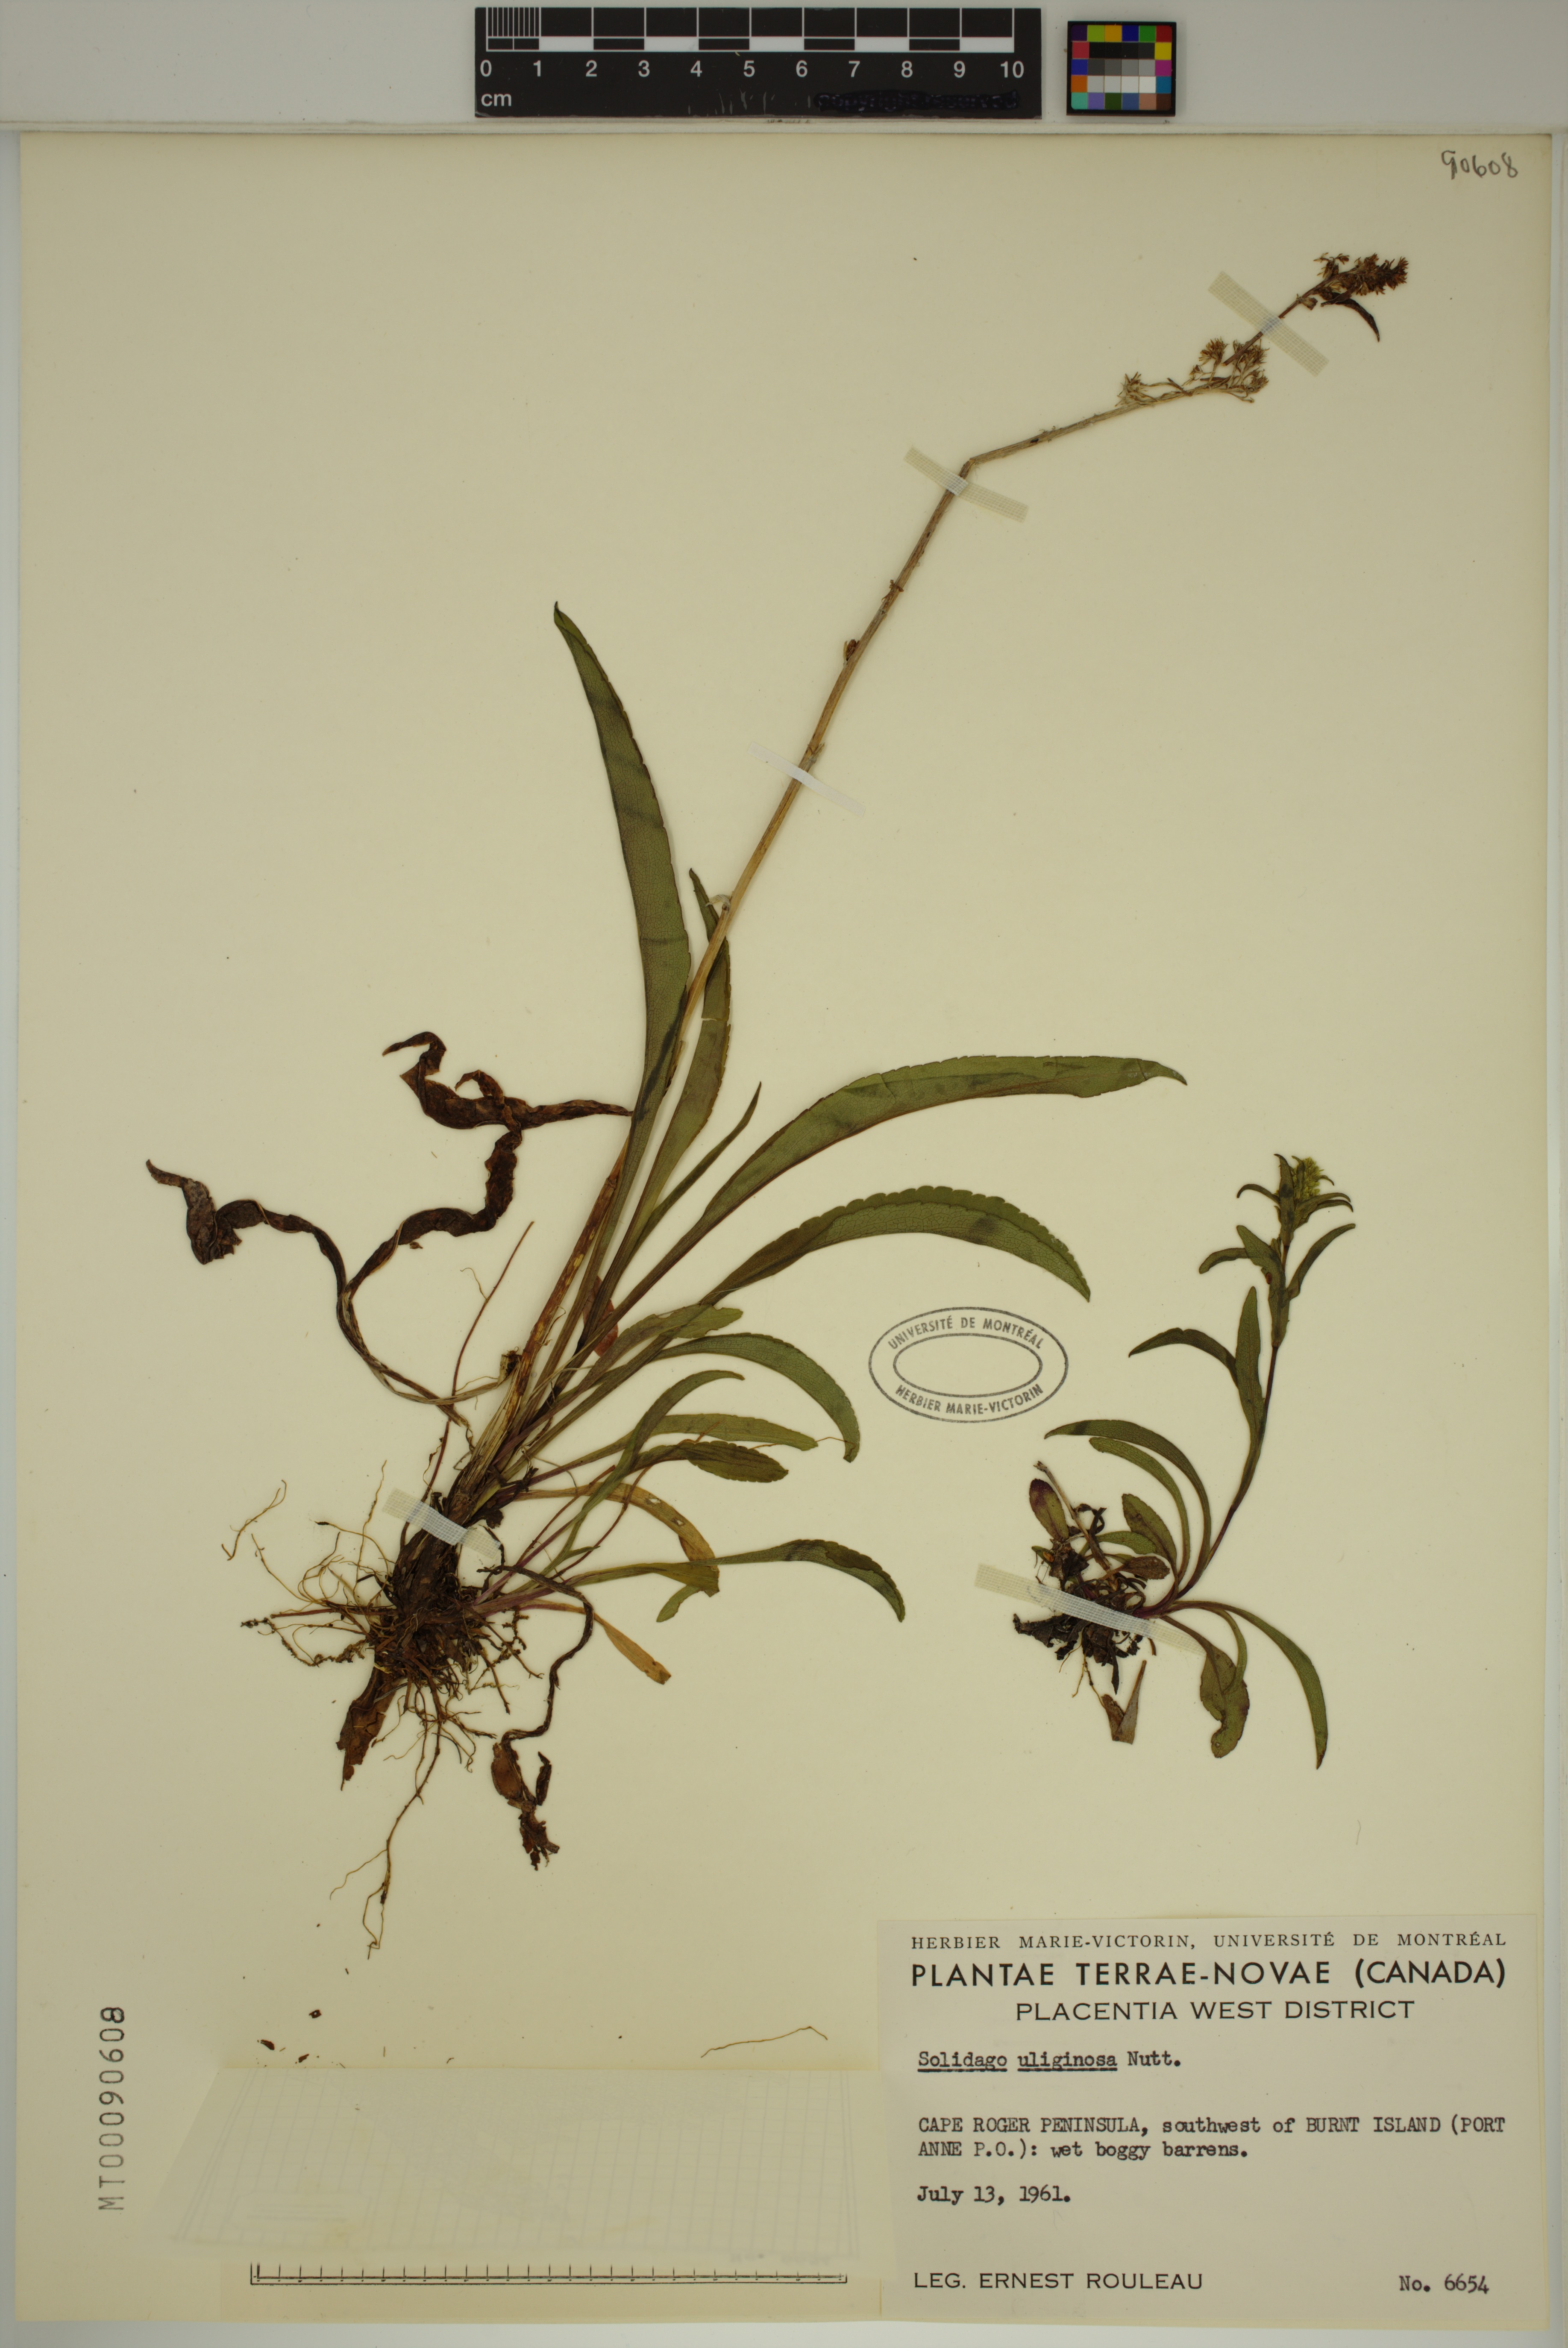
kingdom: Plantae
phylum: Tracheophyta
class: Magnoliopsida
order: Asterales
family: Asteraceae
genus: Solidago
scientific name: Solidago uliginosa
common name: Bog goldenrod
